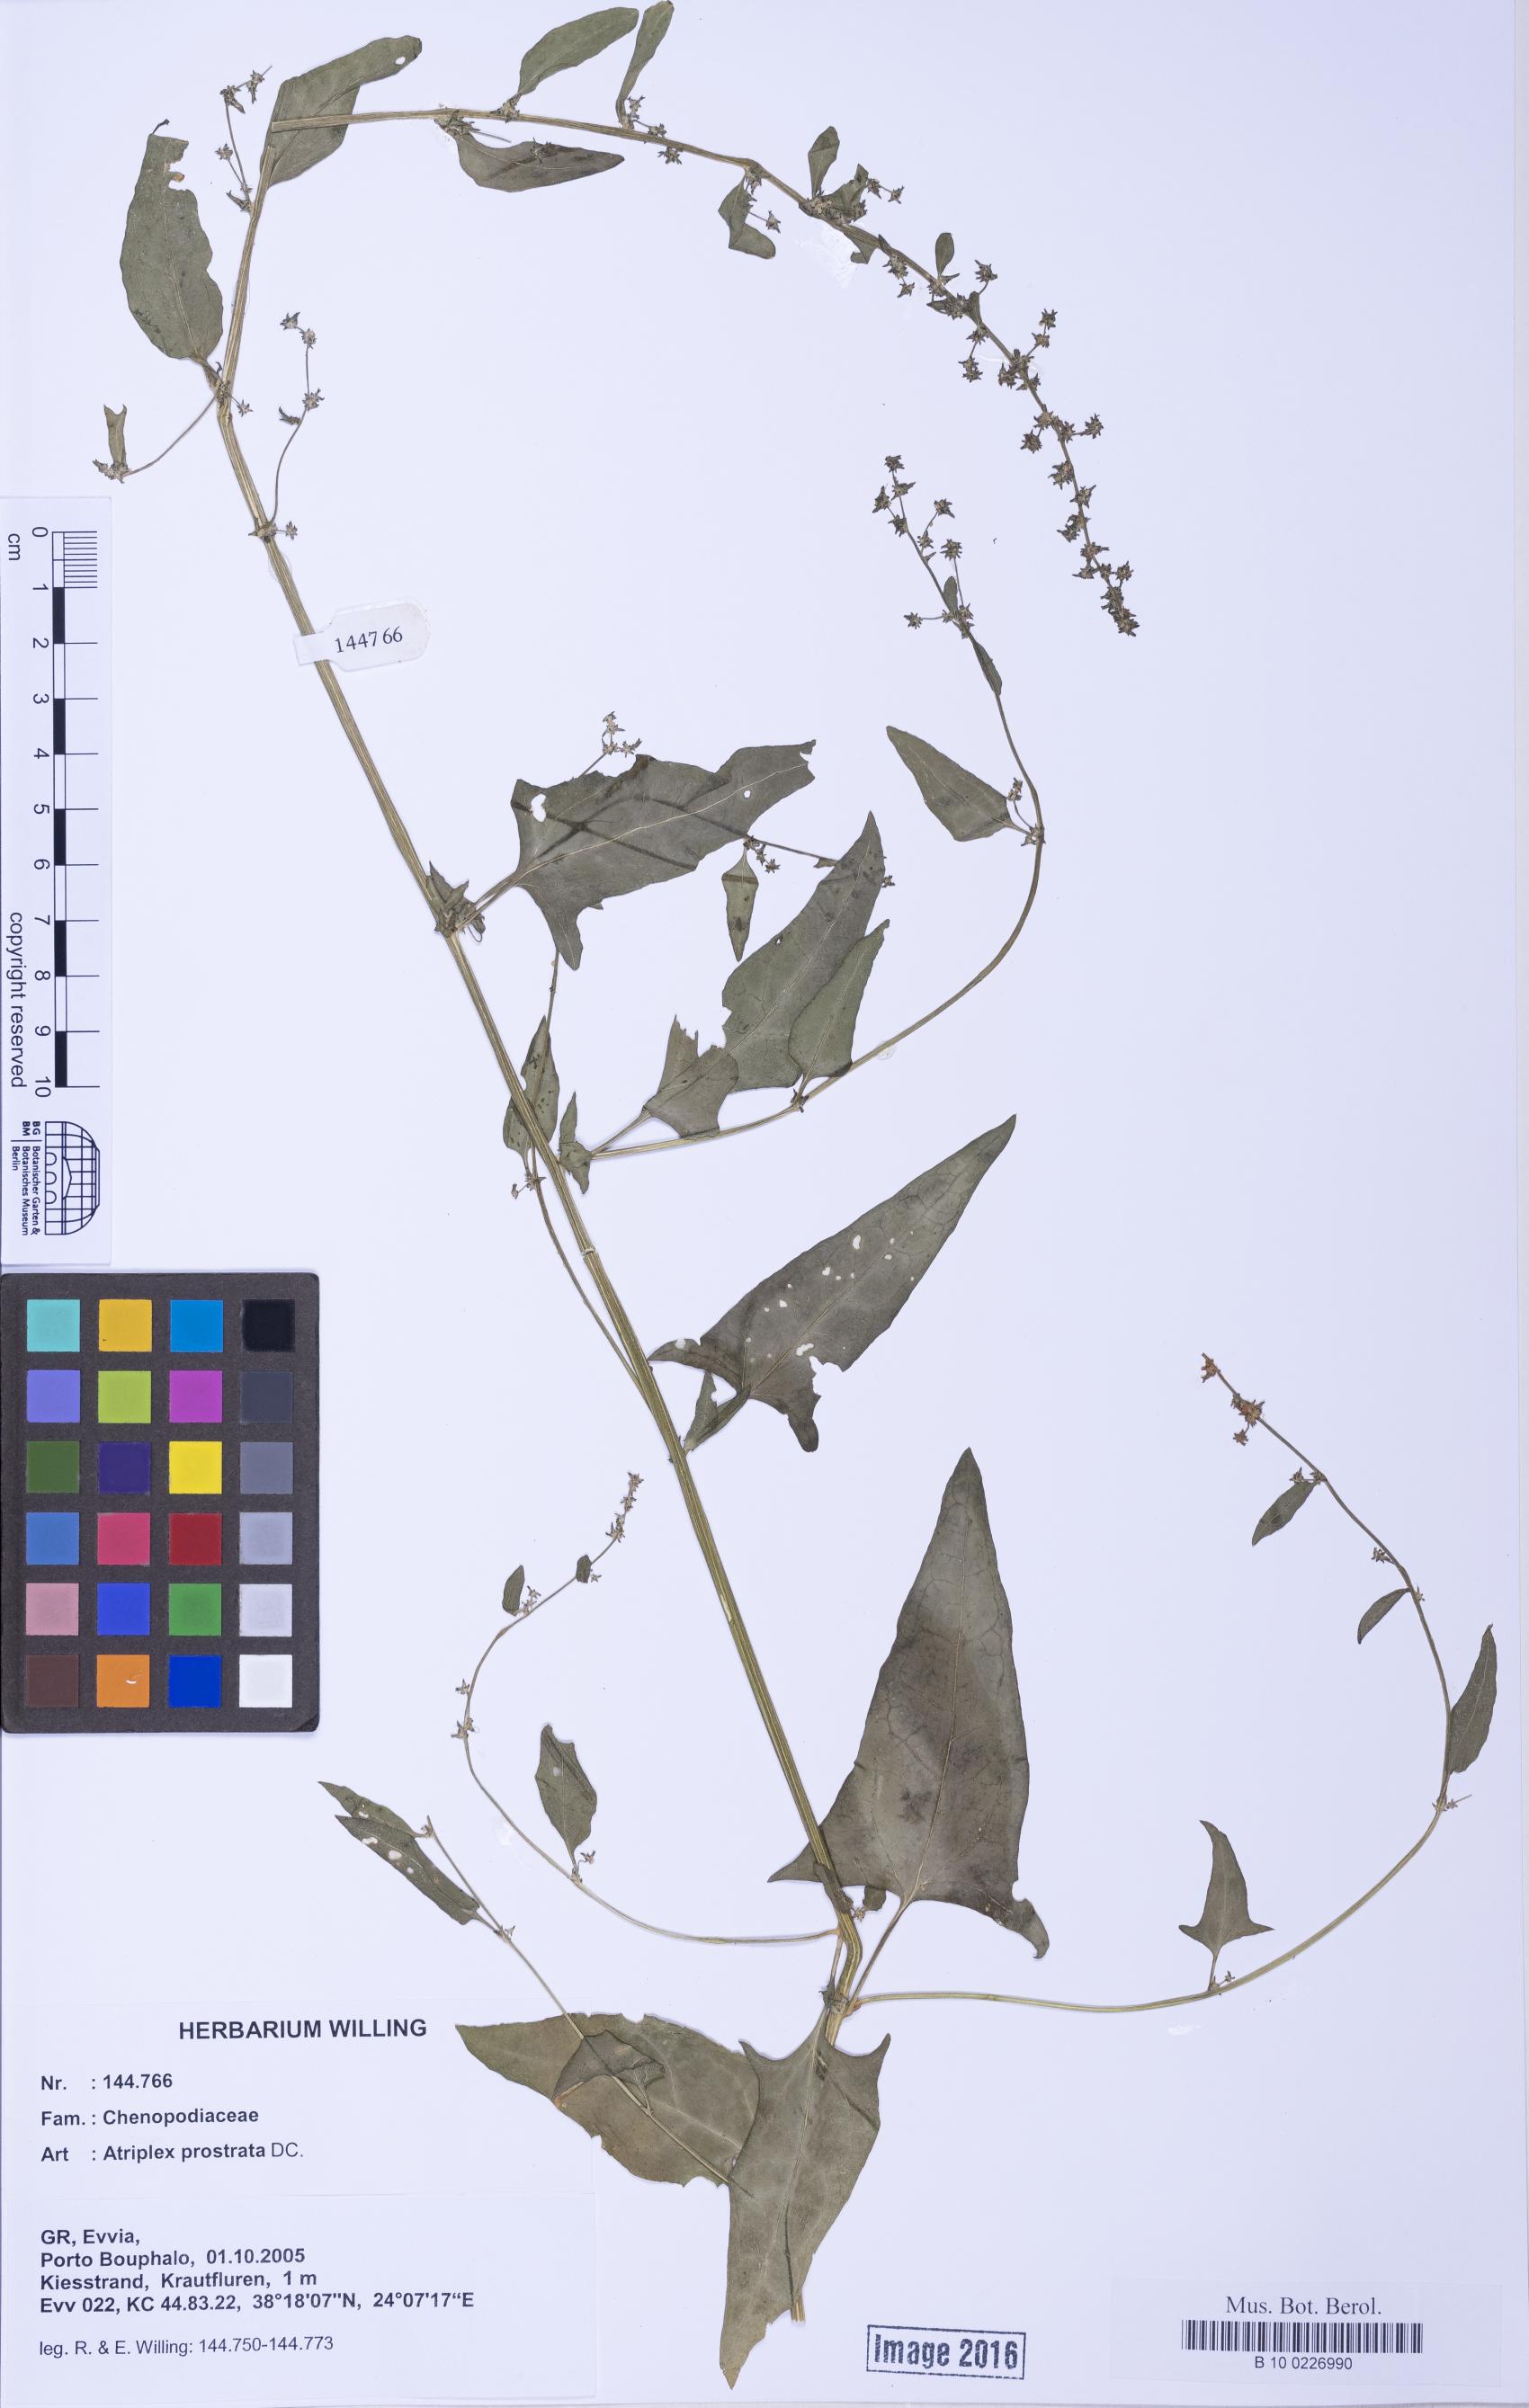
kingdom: Plantae
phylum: Tracheophyta
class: Magnoliopsida
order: Caryophyllales
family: Amaranthaceae
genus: Atriplex
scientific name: Atriplex prostrata
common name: Spear-leaved orache
